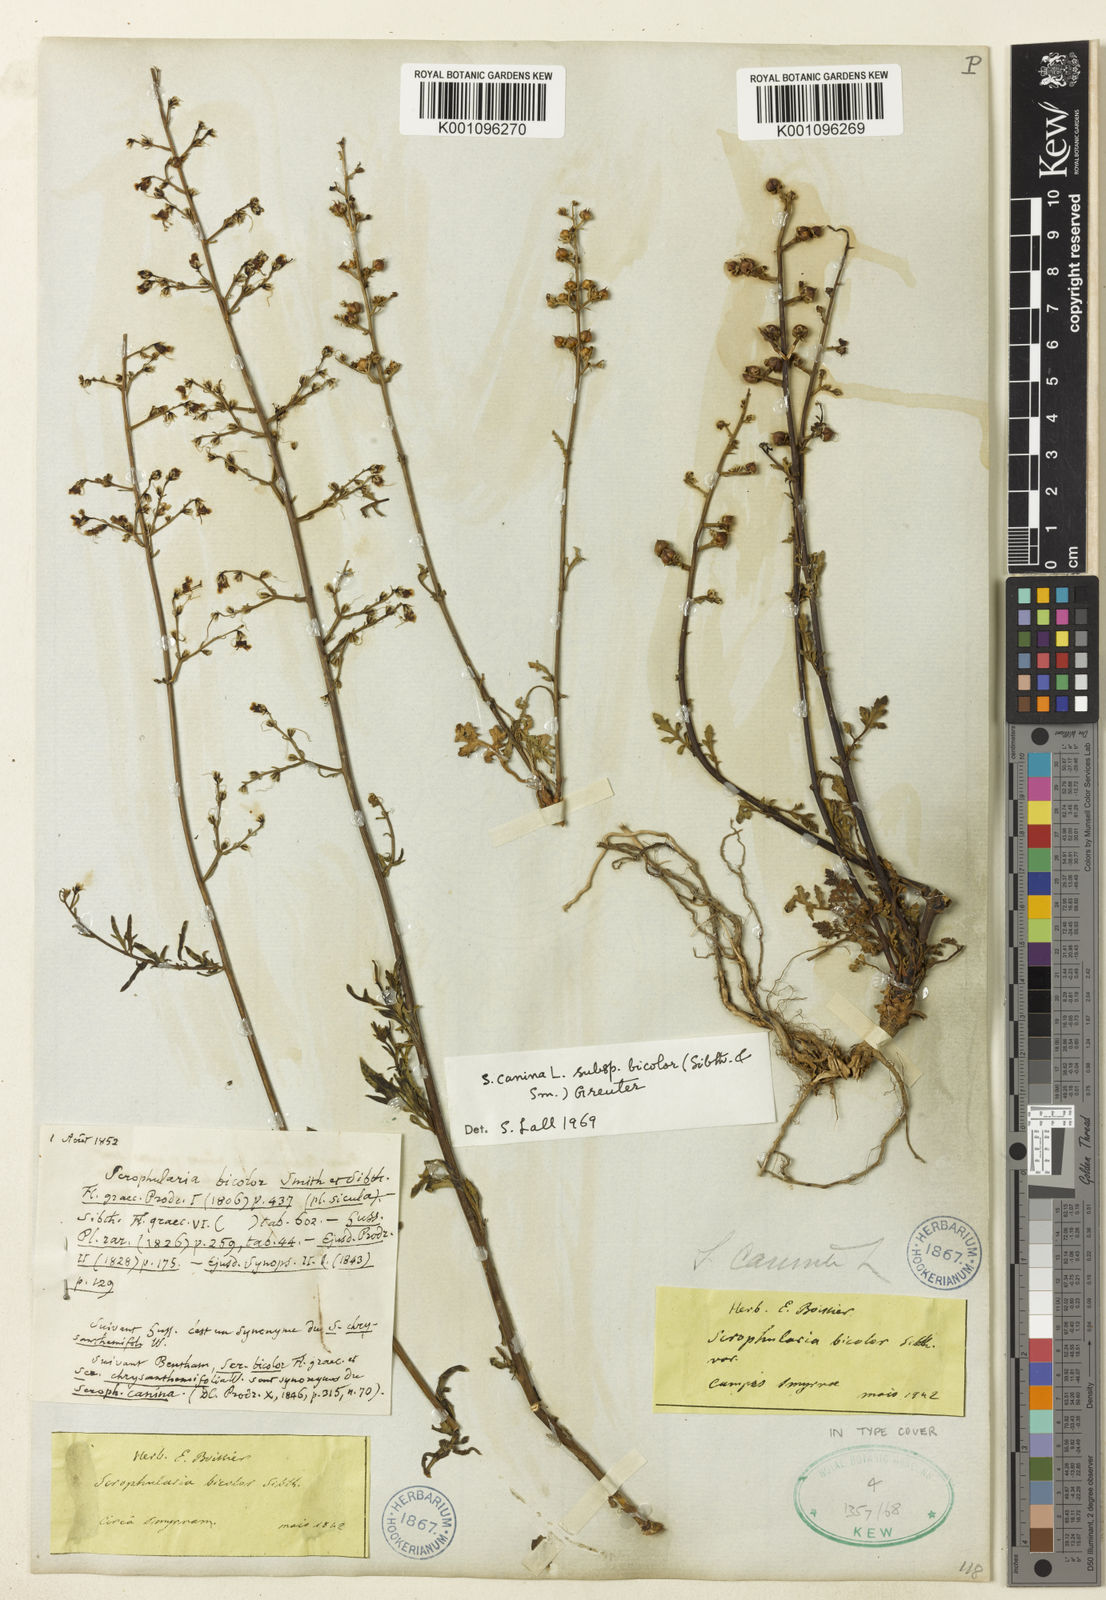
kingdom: Plantae
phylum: Tracheophyta
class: Magnoliopsida
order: Lamiales
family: Scrophulariaceae
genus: Scrophularia
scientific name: Scrophularia canina
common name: French figwort
